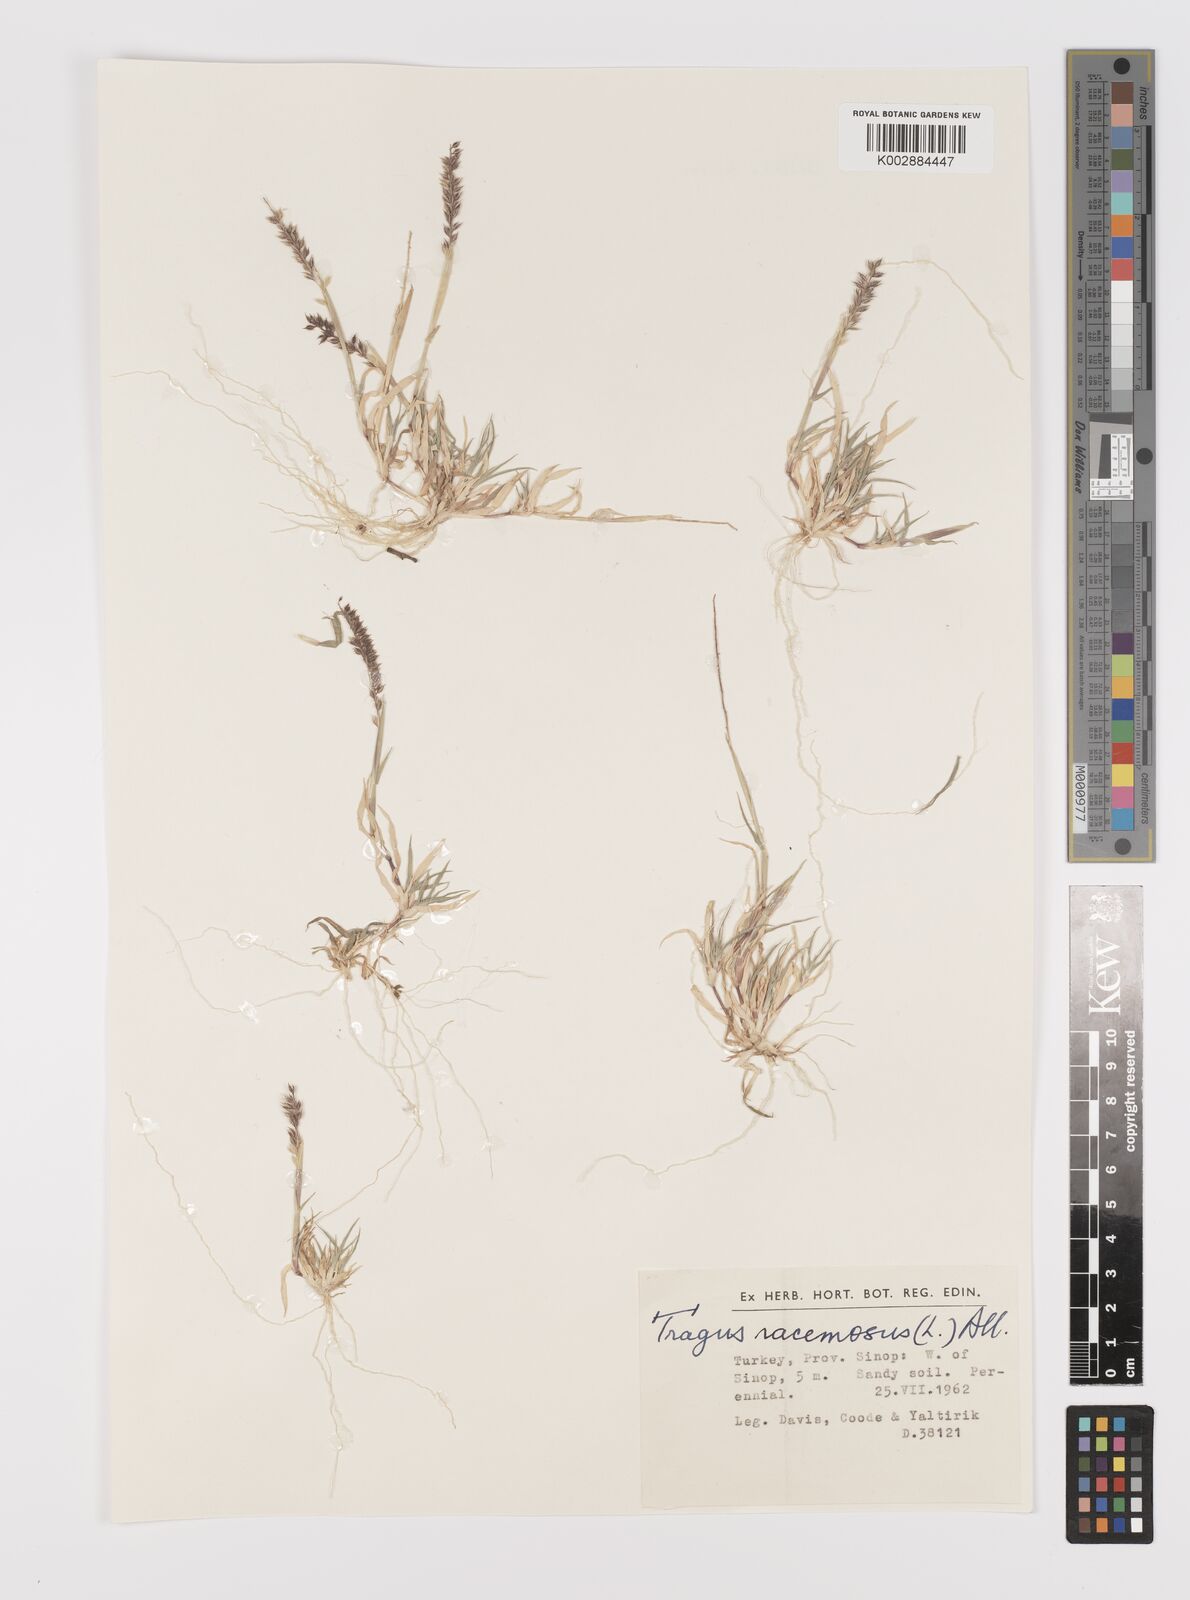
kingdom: Plantae
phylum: Tracheophyta
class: Liliopsida
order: Poales
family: Poaceae
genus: Tragus
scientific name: Tragus racemosus
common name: European bur-grass
